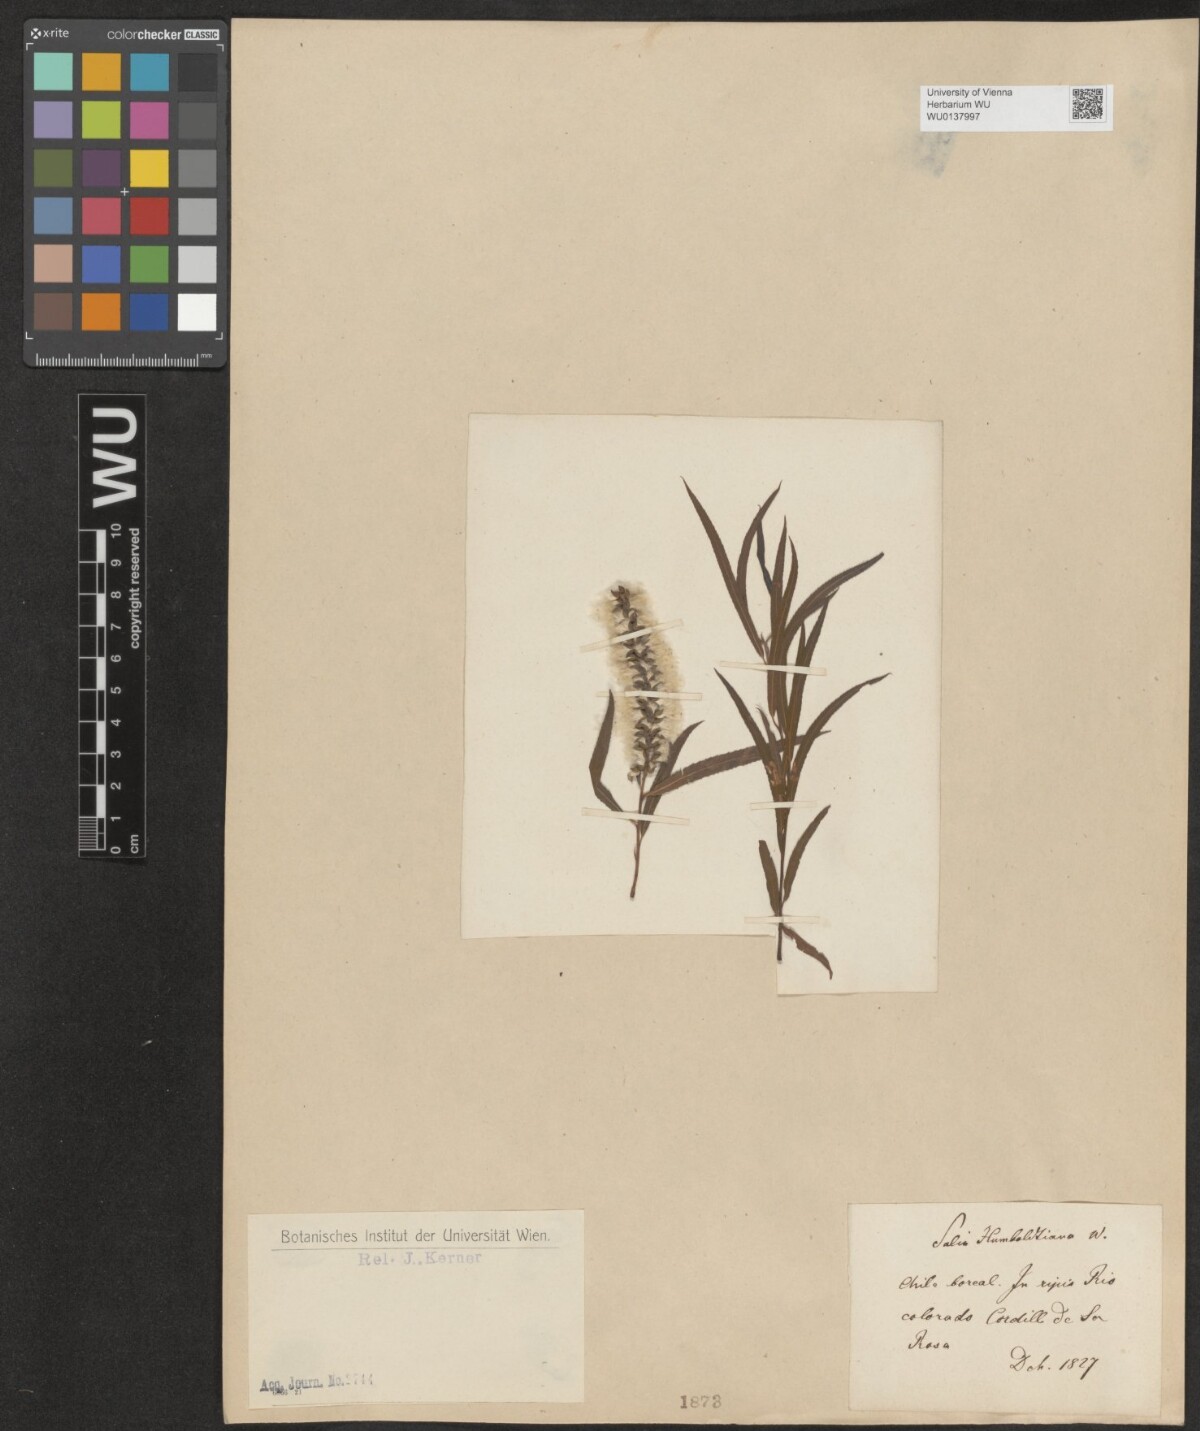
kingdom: Plantae
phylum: Tracheophyta
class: Magnoliopsida
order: Malpighiales
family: Salicaceae
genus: Salix
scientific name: Salix humboldtiana
